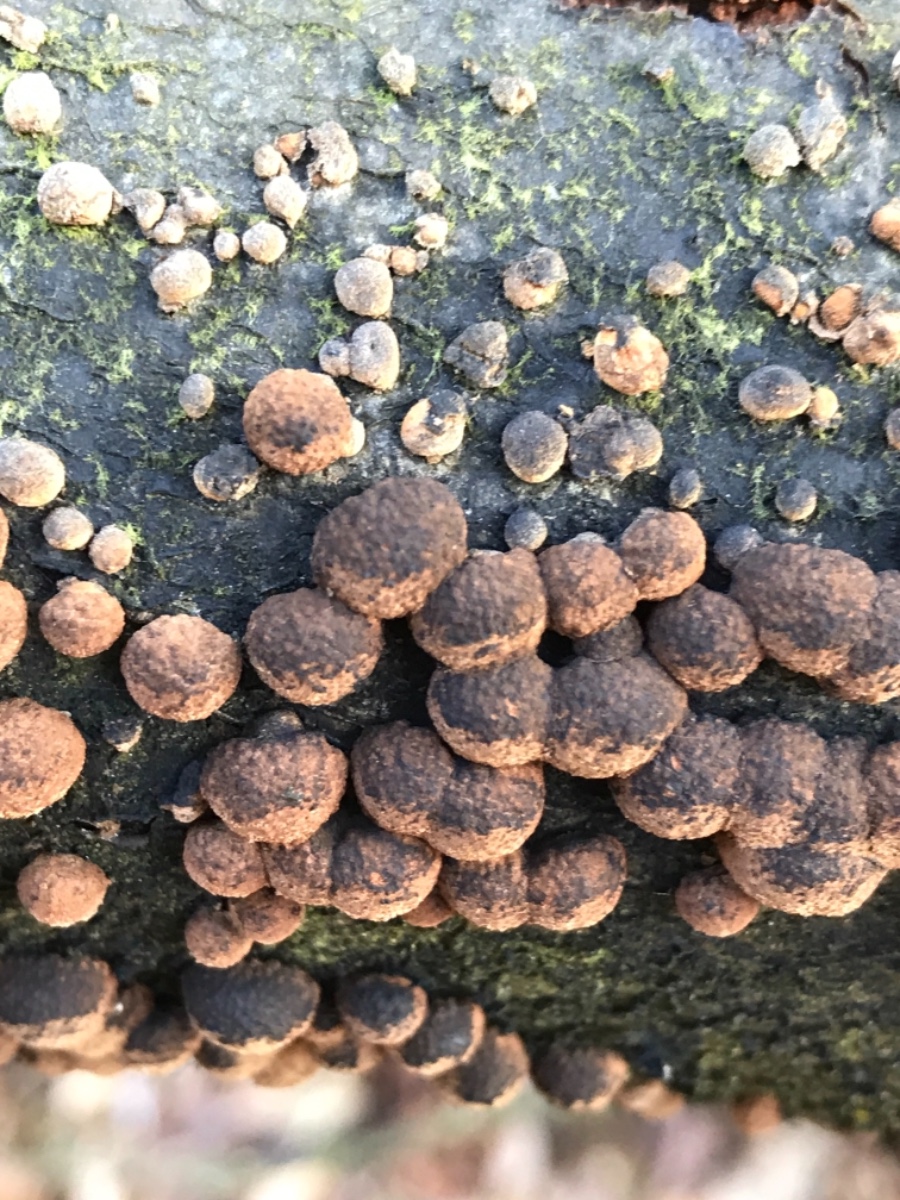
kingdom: Fungi
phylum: Ascomycota
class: Sordariomycetes
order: Xylariales
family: Hypoxylaceae
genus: Hypoxylon
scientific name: Hypoxylon fragiforme
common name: kuljordbær
